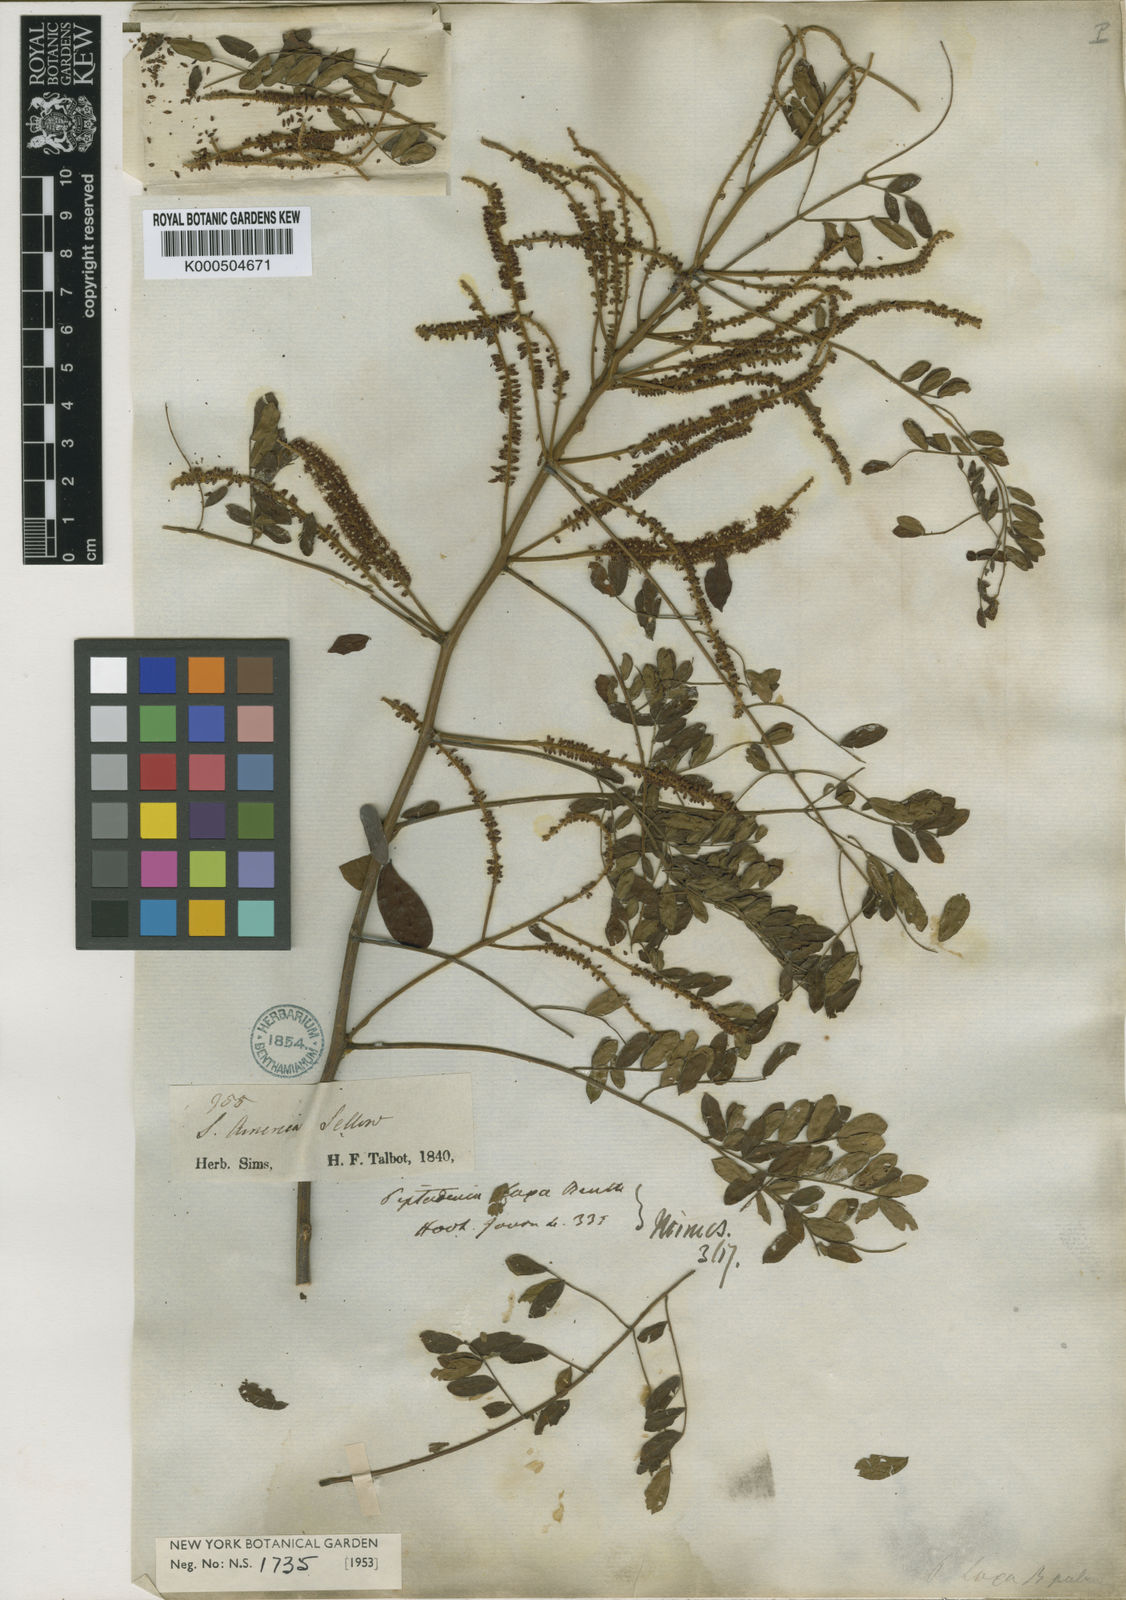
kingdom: Plantae
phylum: Tracheophyta
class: Magnoliopsida
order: Fabales
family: Fabaceae
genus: Piptadenia
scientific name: Piptadenia adiantoides
